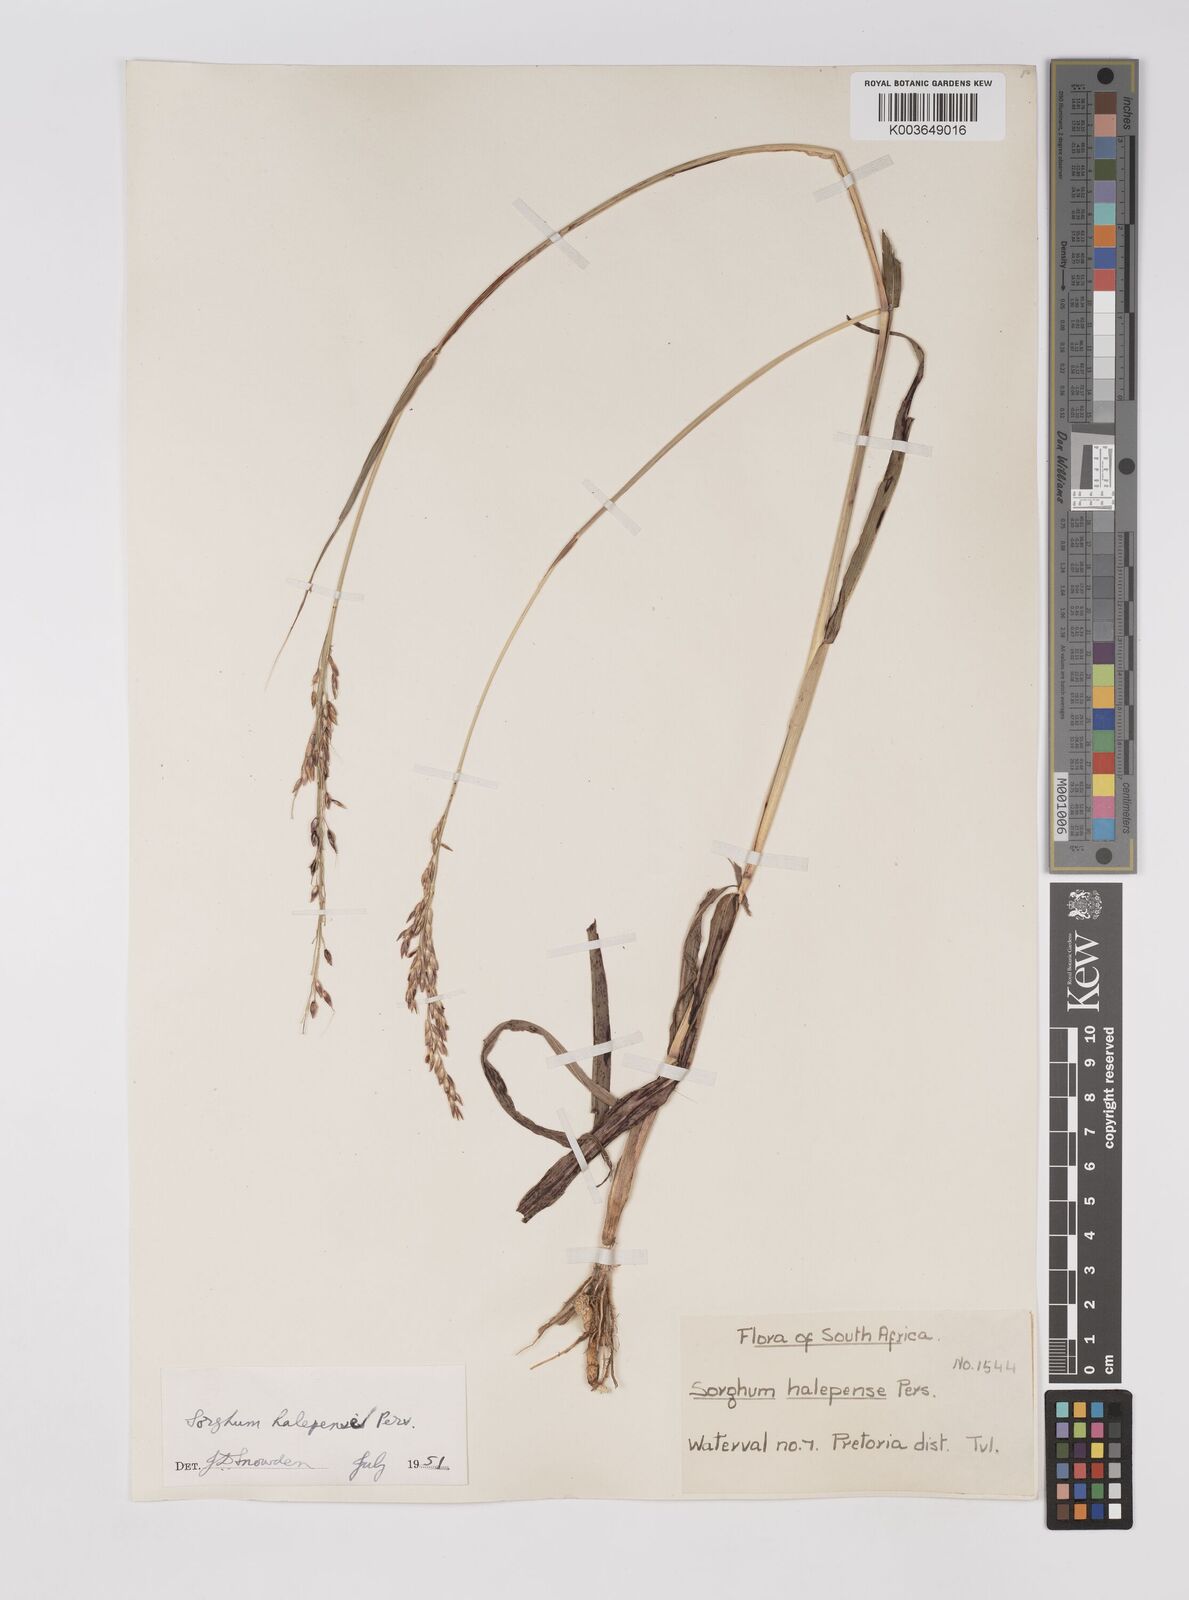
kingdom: Plantae
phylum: Tracheophyta
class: Liliopsida
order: Poales
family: Poaceae
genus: Sorghum
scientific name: Sorghum halepense
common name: Johnson-grass
